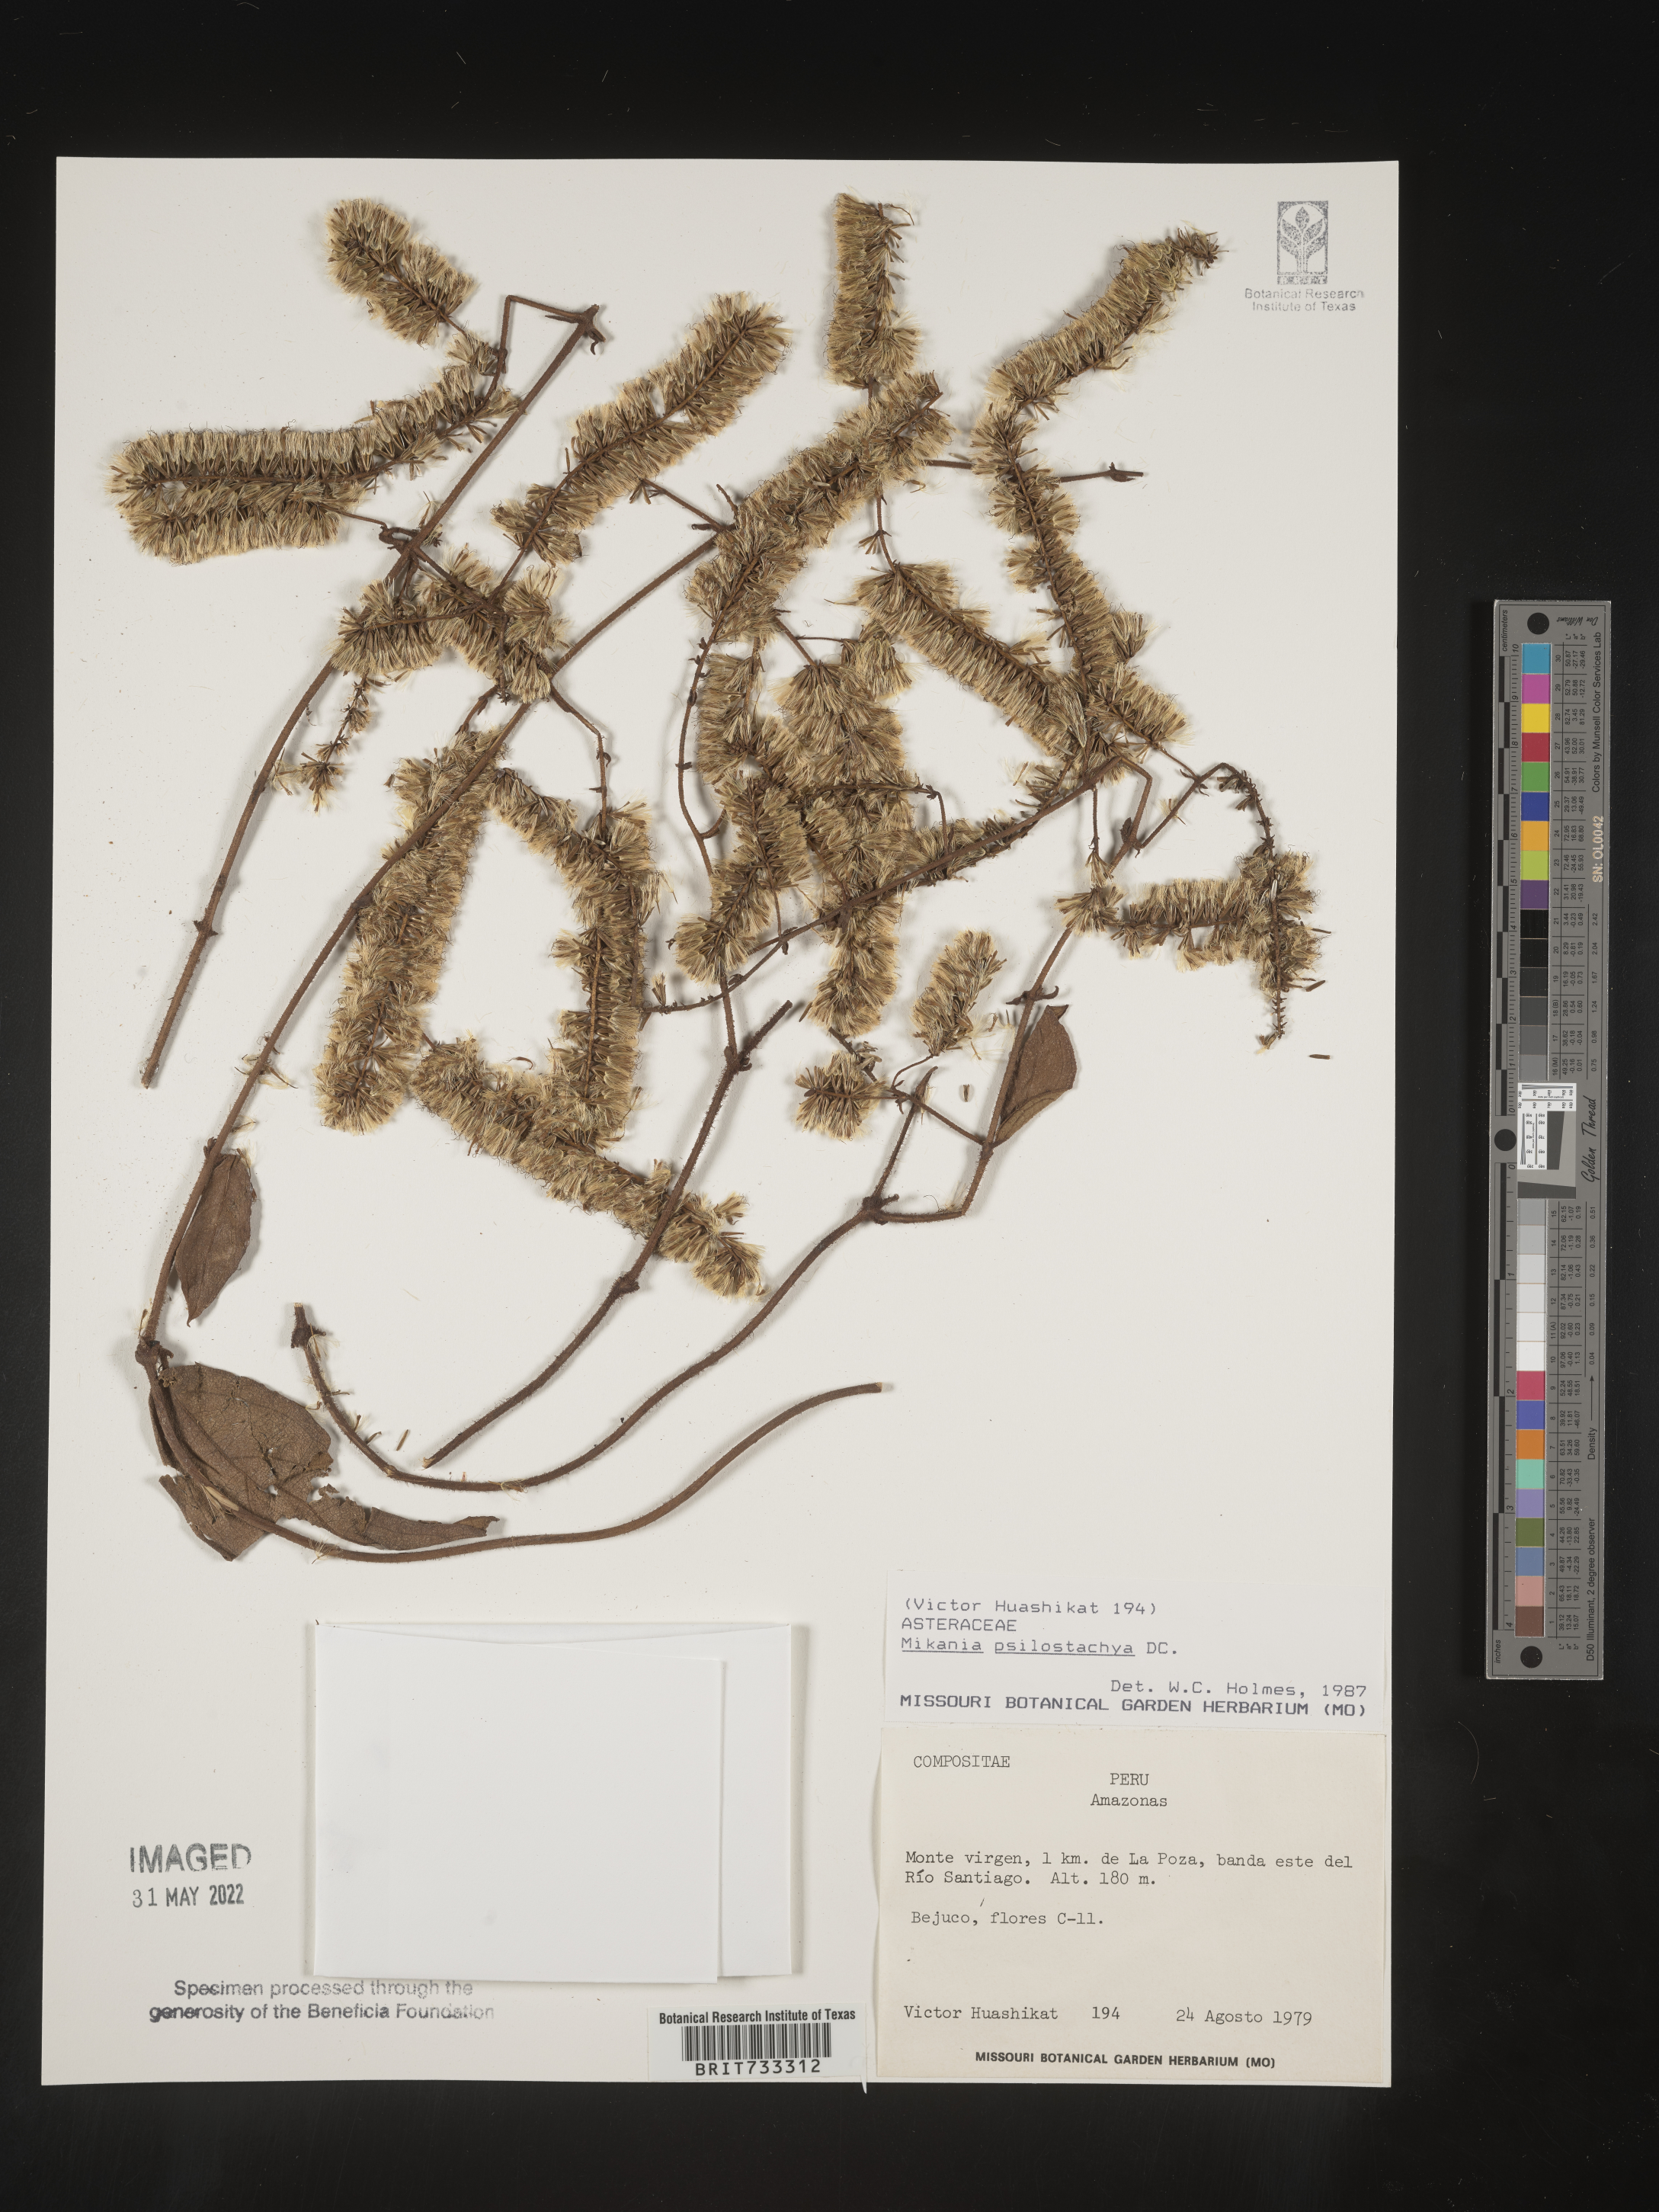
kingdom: Plantae
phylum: Tracheophyta
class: Magnoliopsida
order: Asterales
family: Asteraceae
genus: Mikania
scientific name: Mikania
